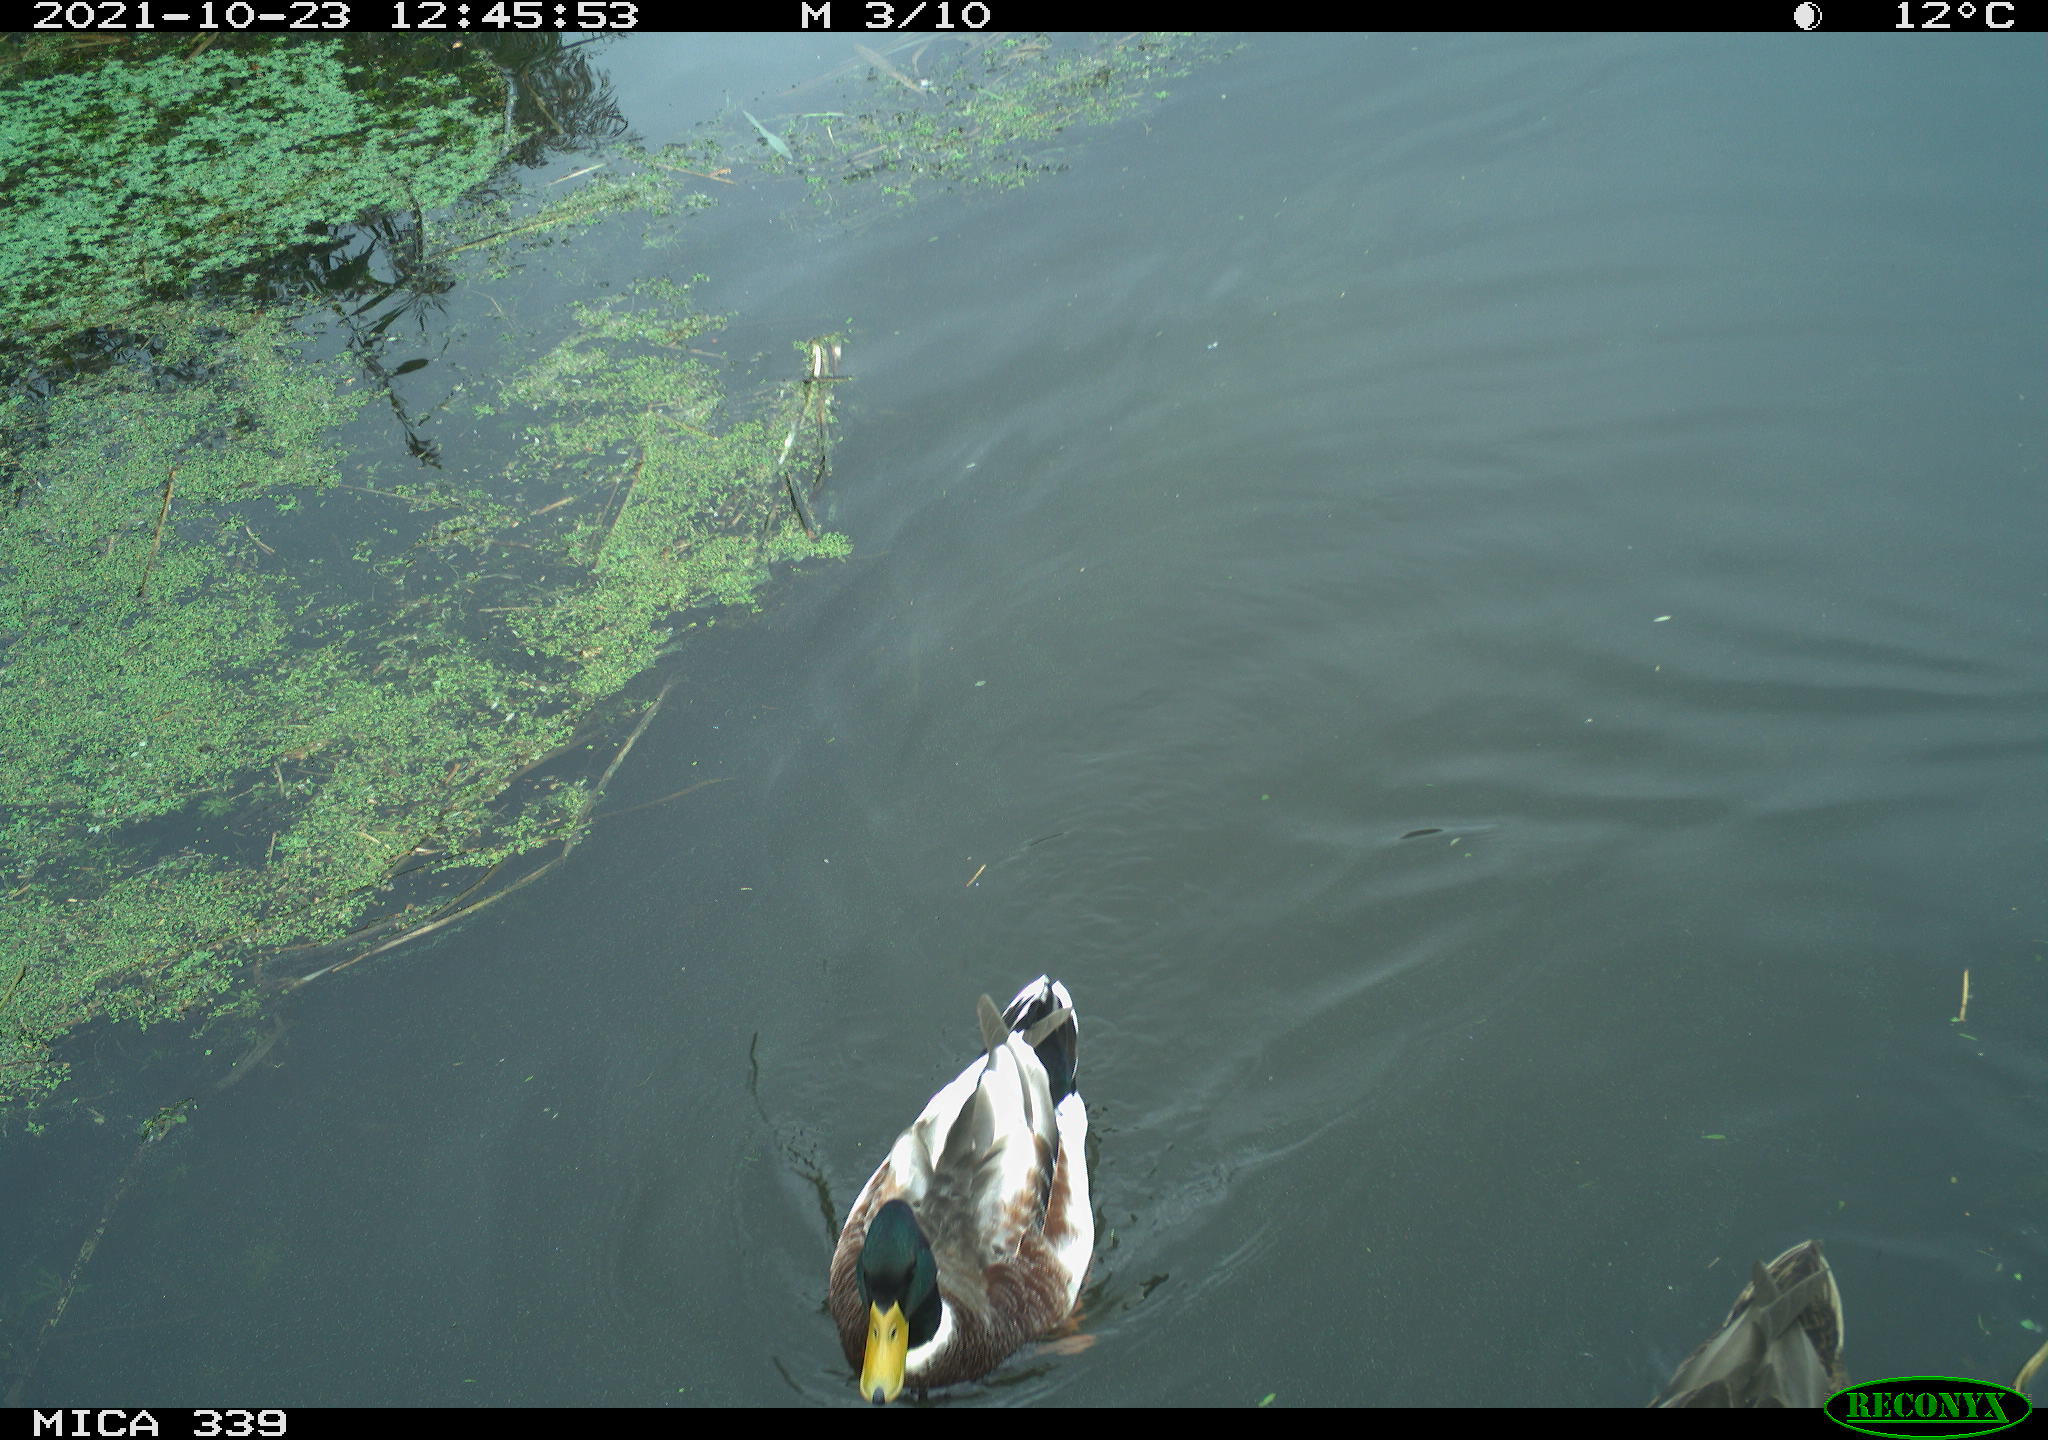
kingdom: Animalia
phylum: Chordata
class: Aves
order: Anseriformes
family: Anatidae
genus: Anas
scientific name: Anas platyrhynchos
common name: Mallard
